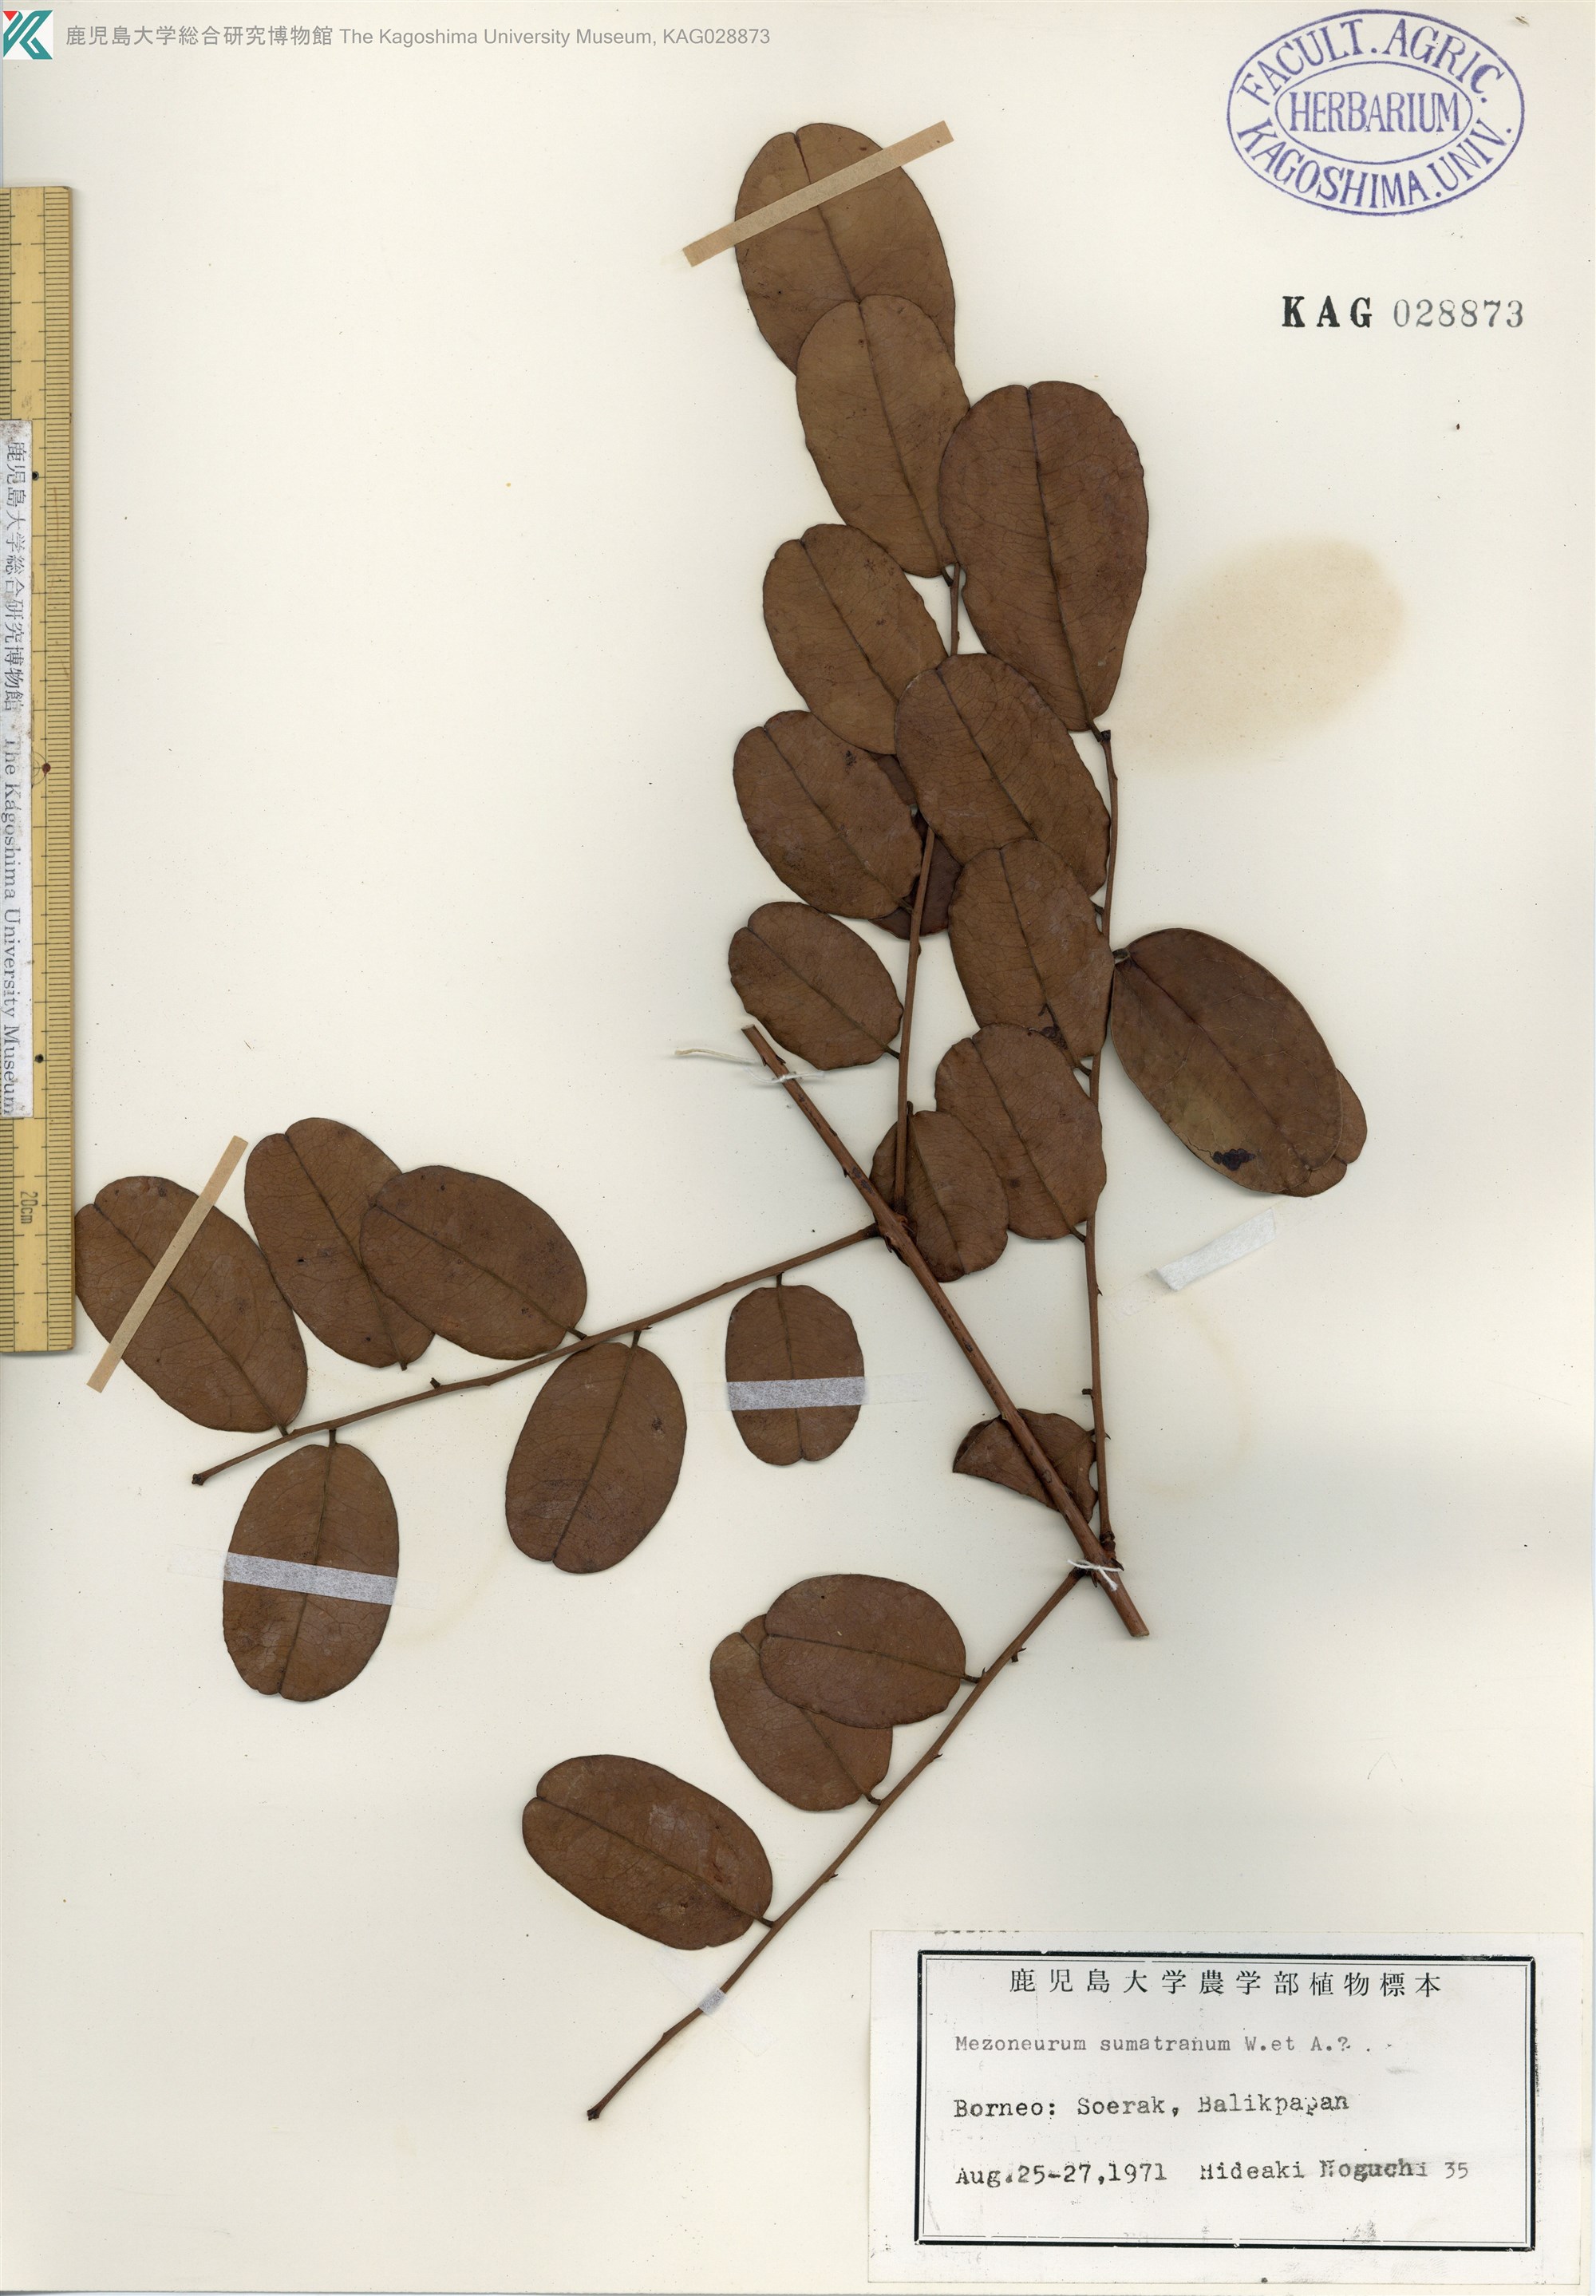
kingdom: Plantae
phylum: Tracheophyta
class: Magnoliopsida
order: Fabales
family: Fabaceae
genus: Mezoneurum
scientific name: Mezoneurum sumatranum
